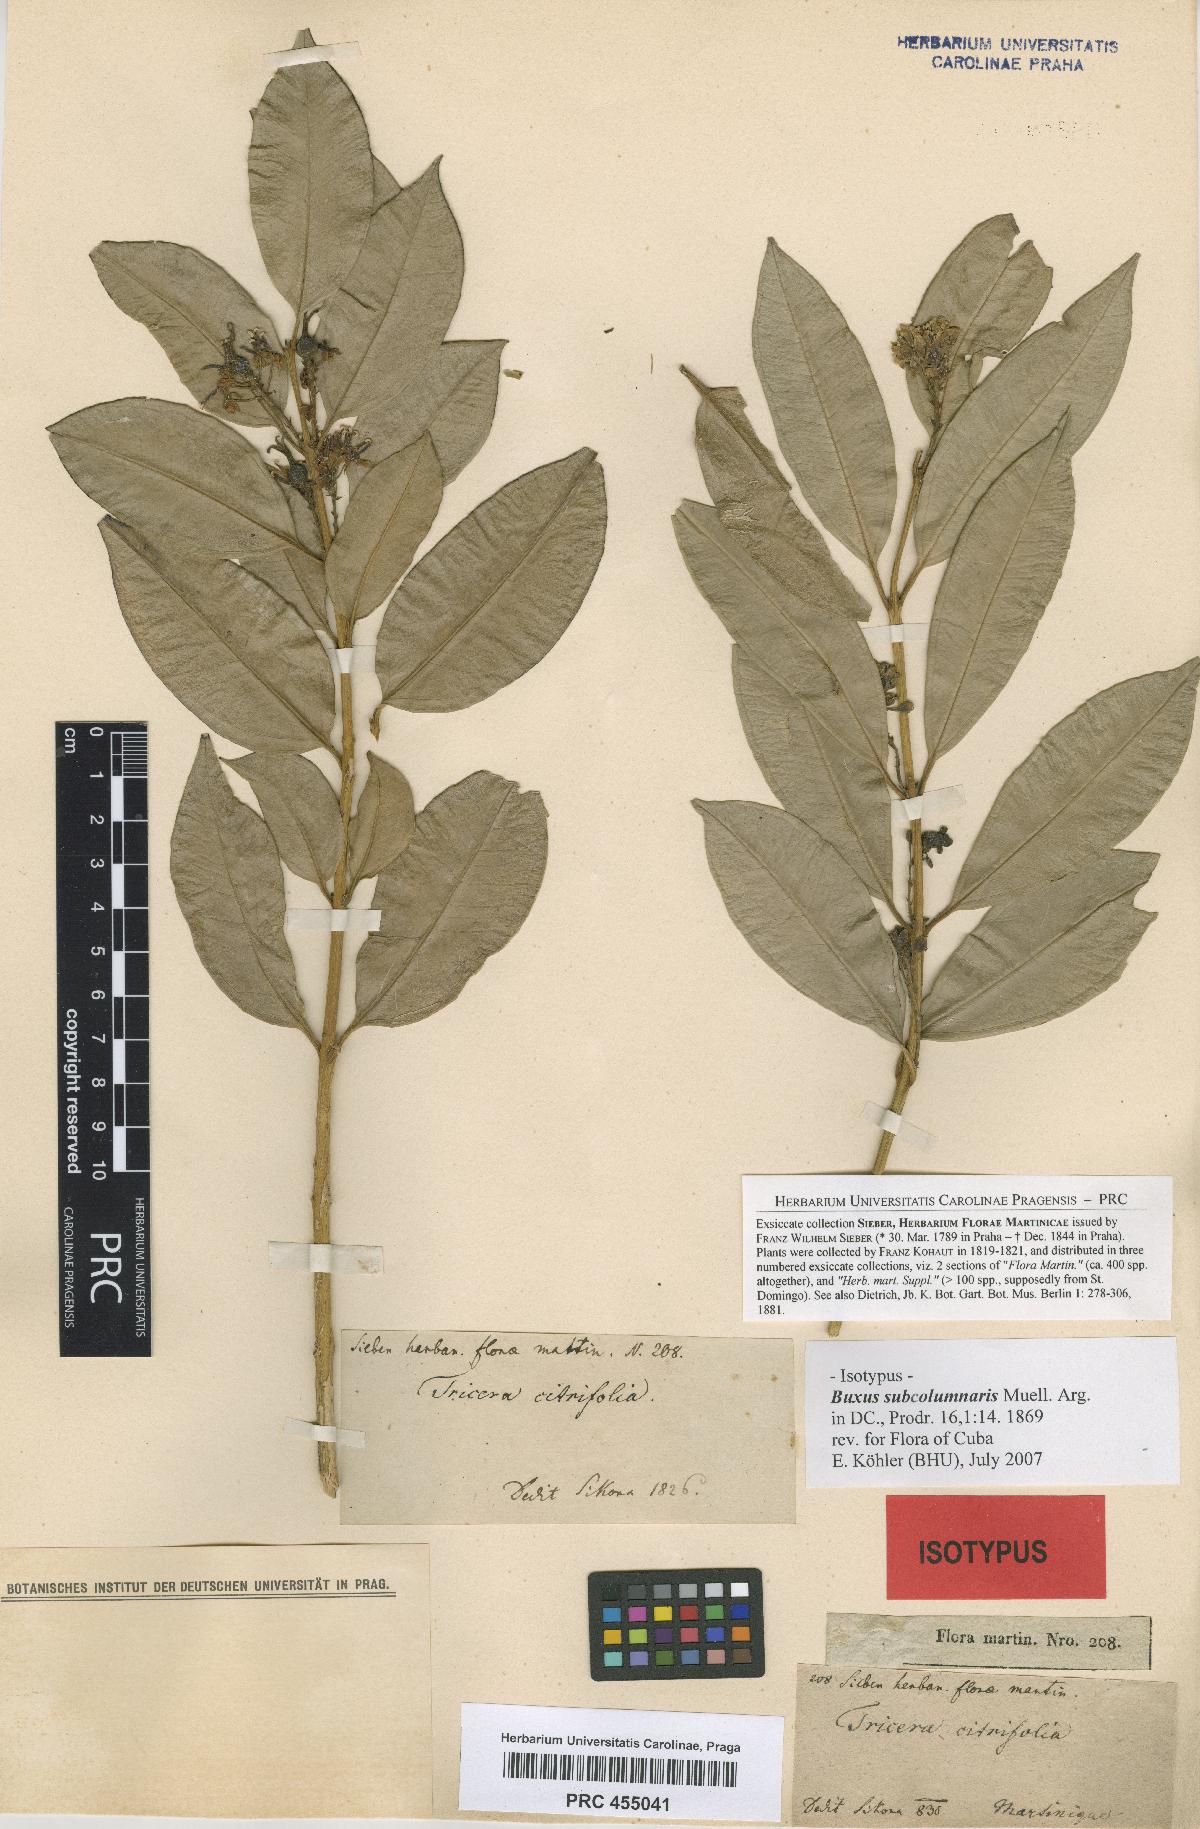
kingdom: Plantae
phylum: Tracheophyta
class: Magnoliopsida
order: Buxales
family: Buxaceae
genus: Buxus
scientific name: Buxus subcolumnaris
